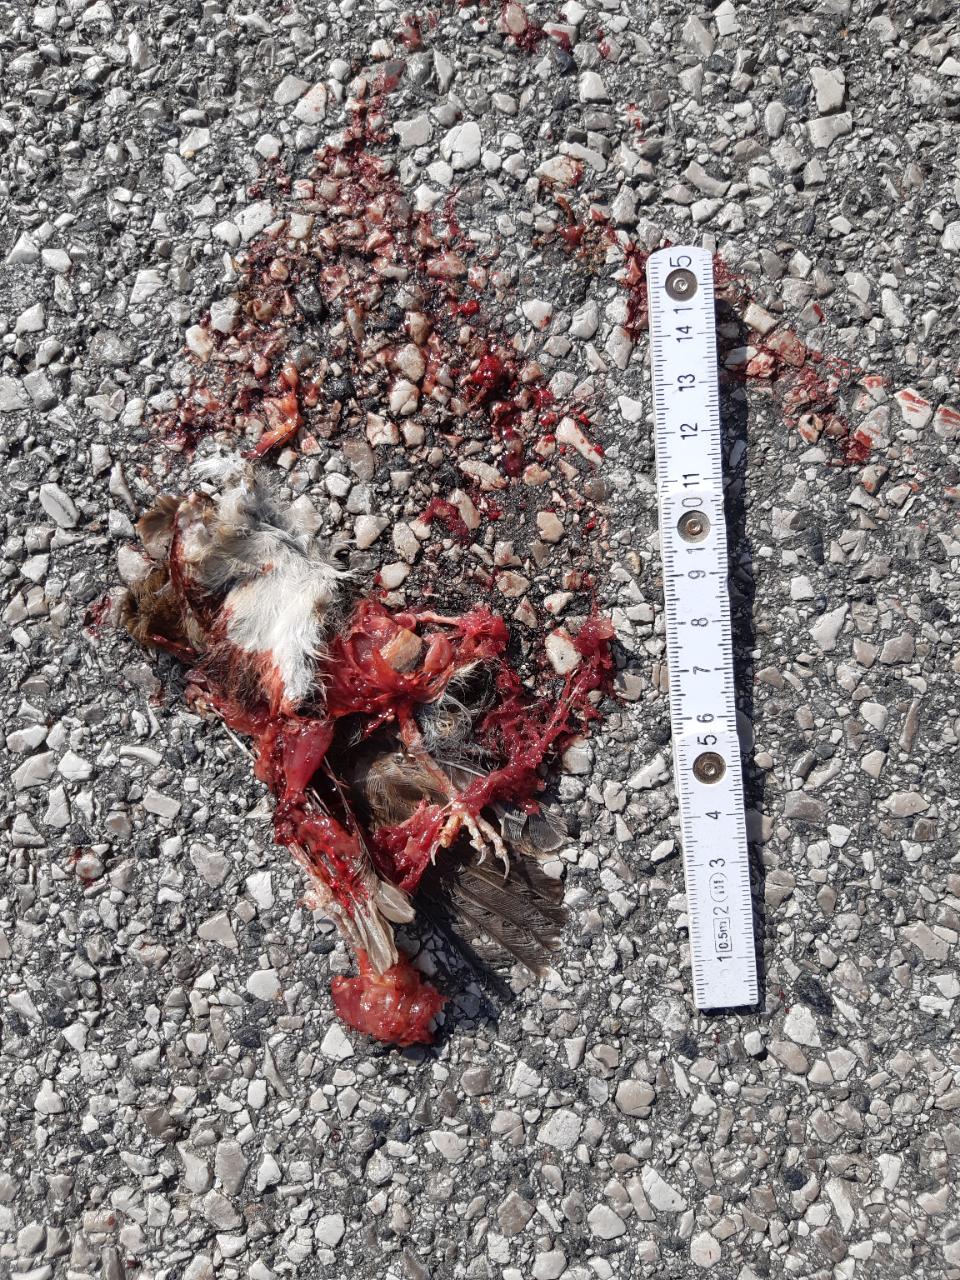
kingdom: Animalia
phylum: Chordata
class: Aves
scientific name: Aves
